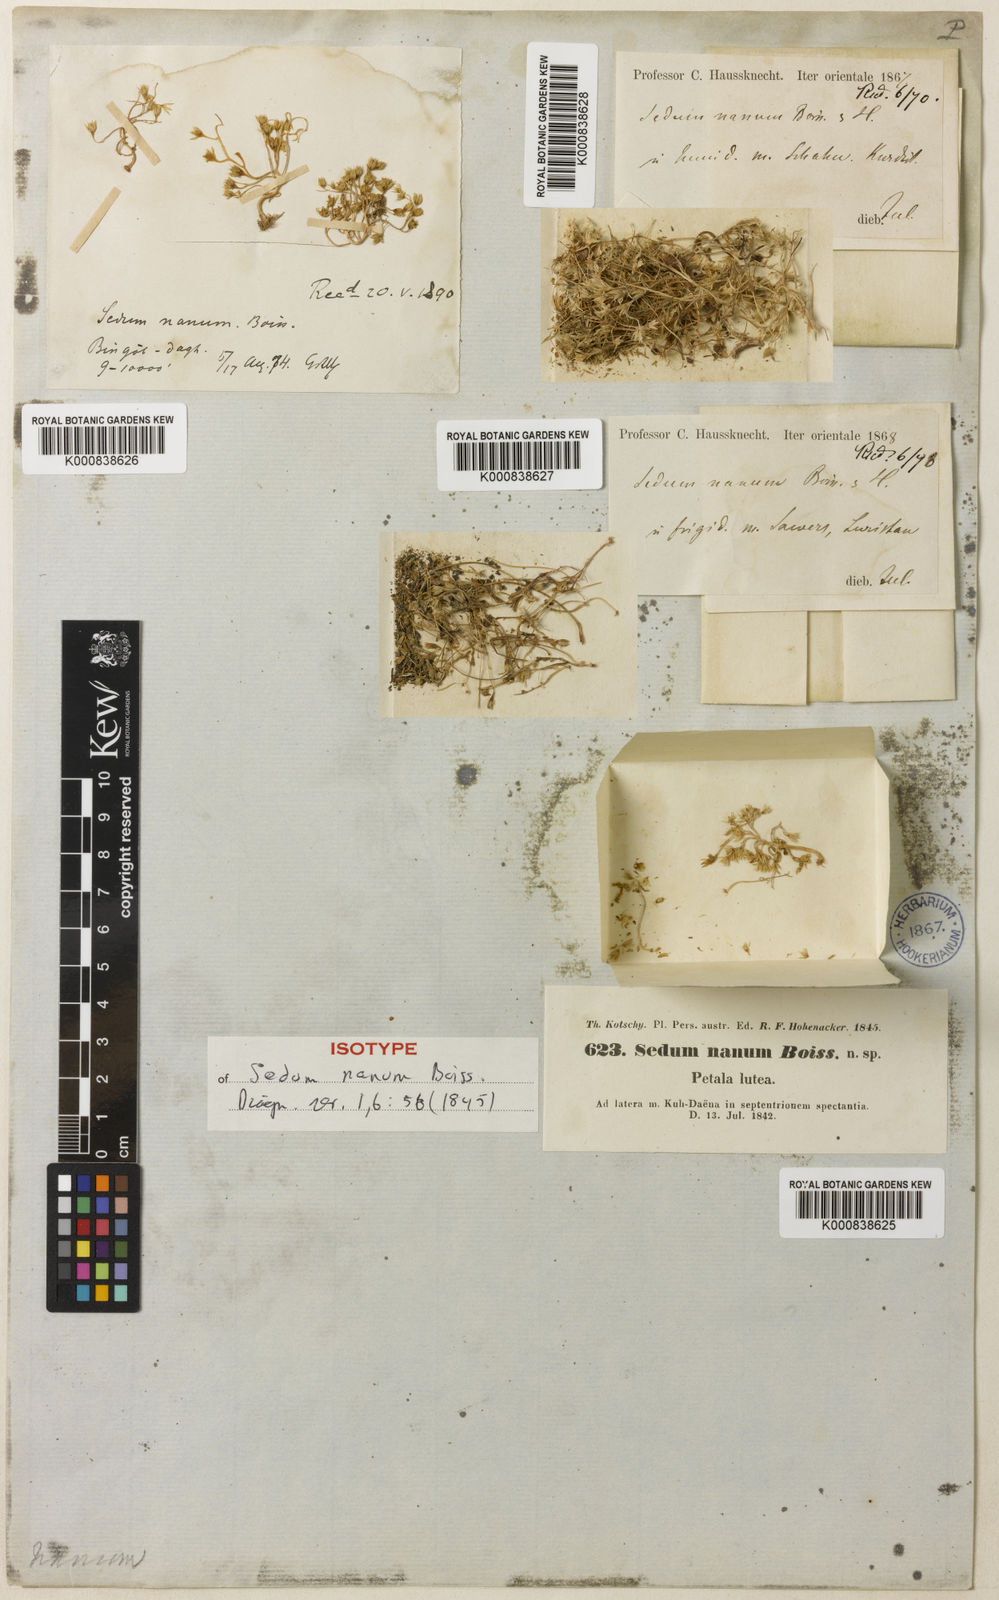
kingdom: Plantae
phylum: Tracheophyta
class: Magnoliopsida
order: Saxifragales
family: Crassulaceae
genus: Sedum
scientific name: Sedum nanum
